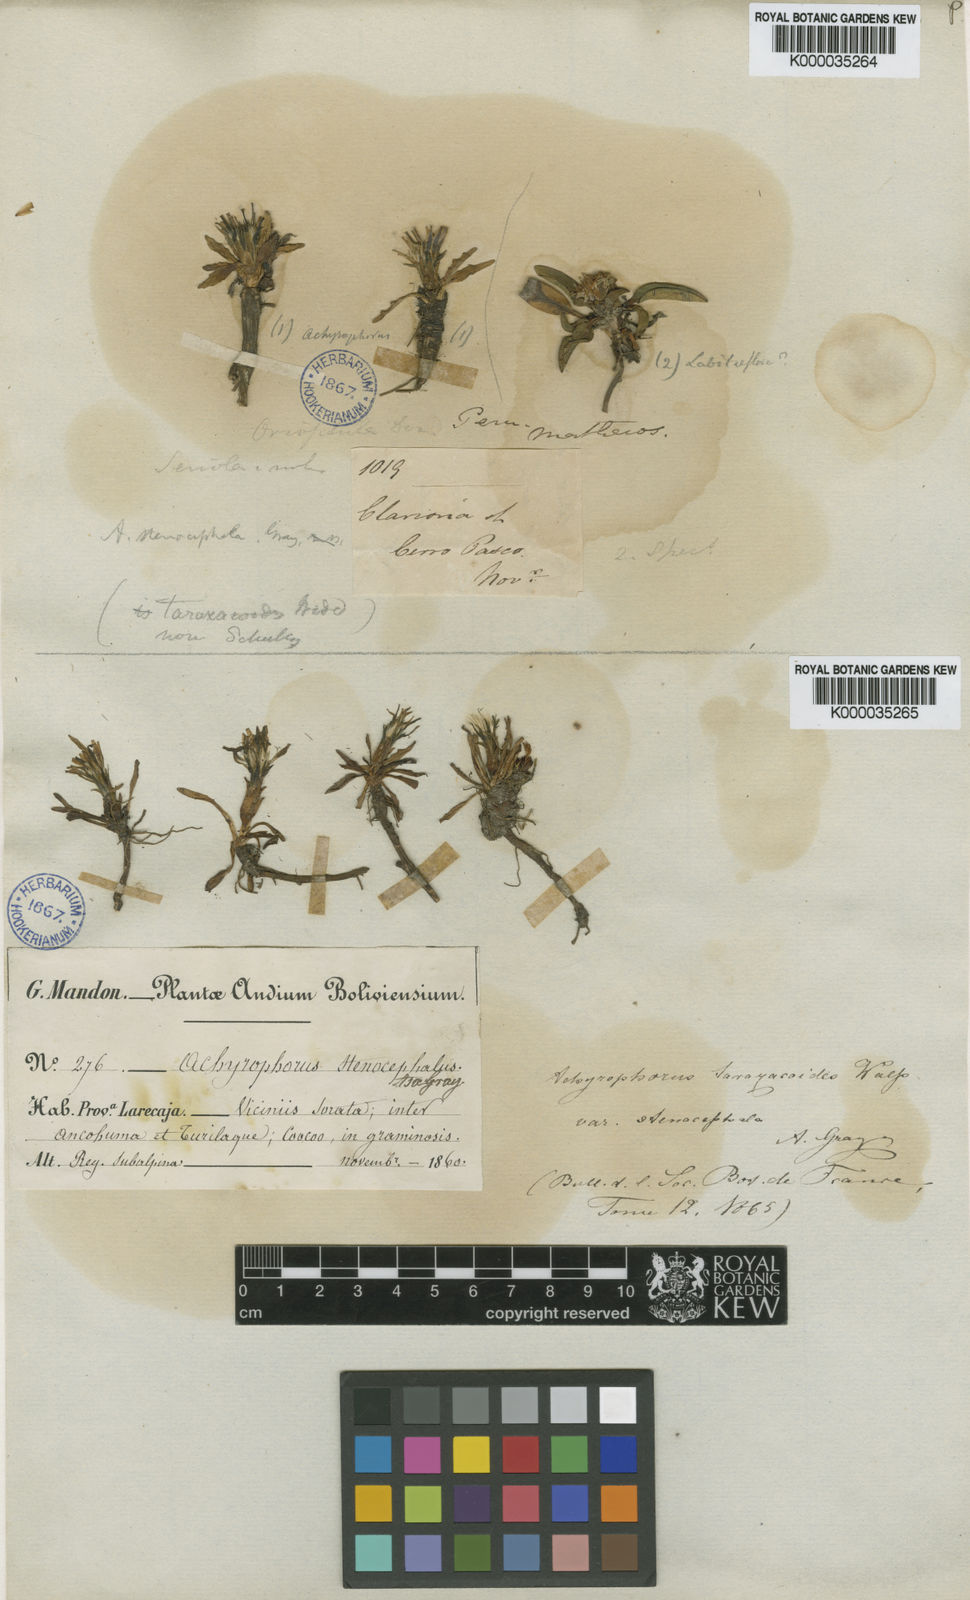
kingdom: Plantae
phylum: Tracheophyta
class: Magnoliopsida
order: Asterales
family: Asteraceae
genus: Hypochaeris
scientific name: Hypochaeris
